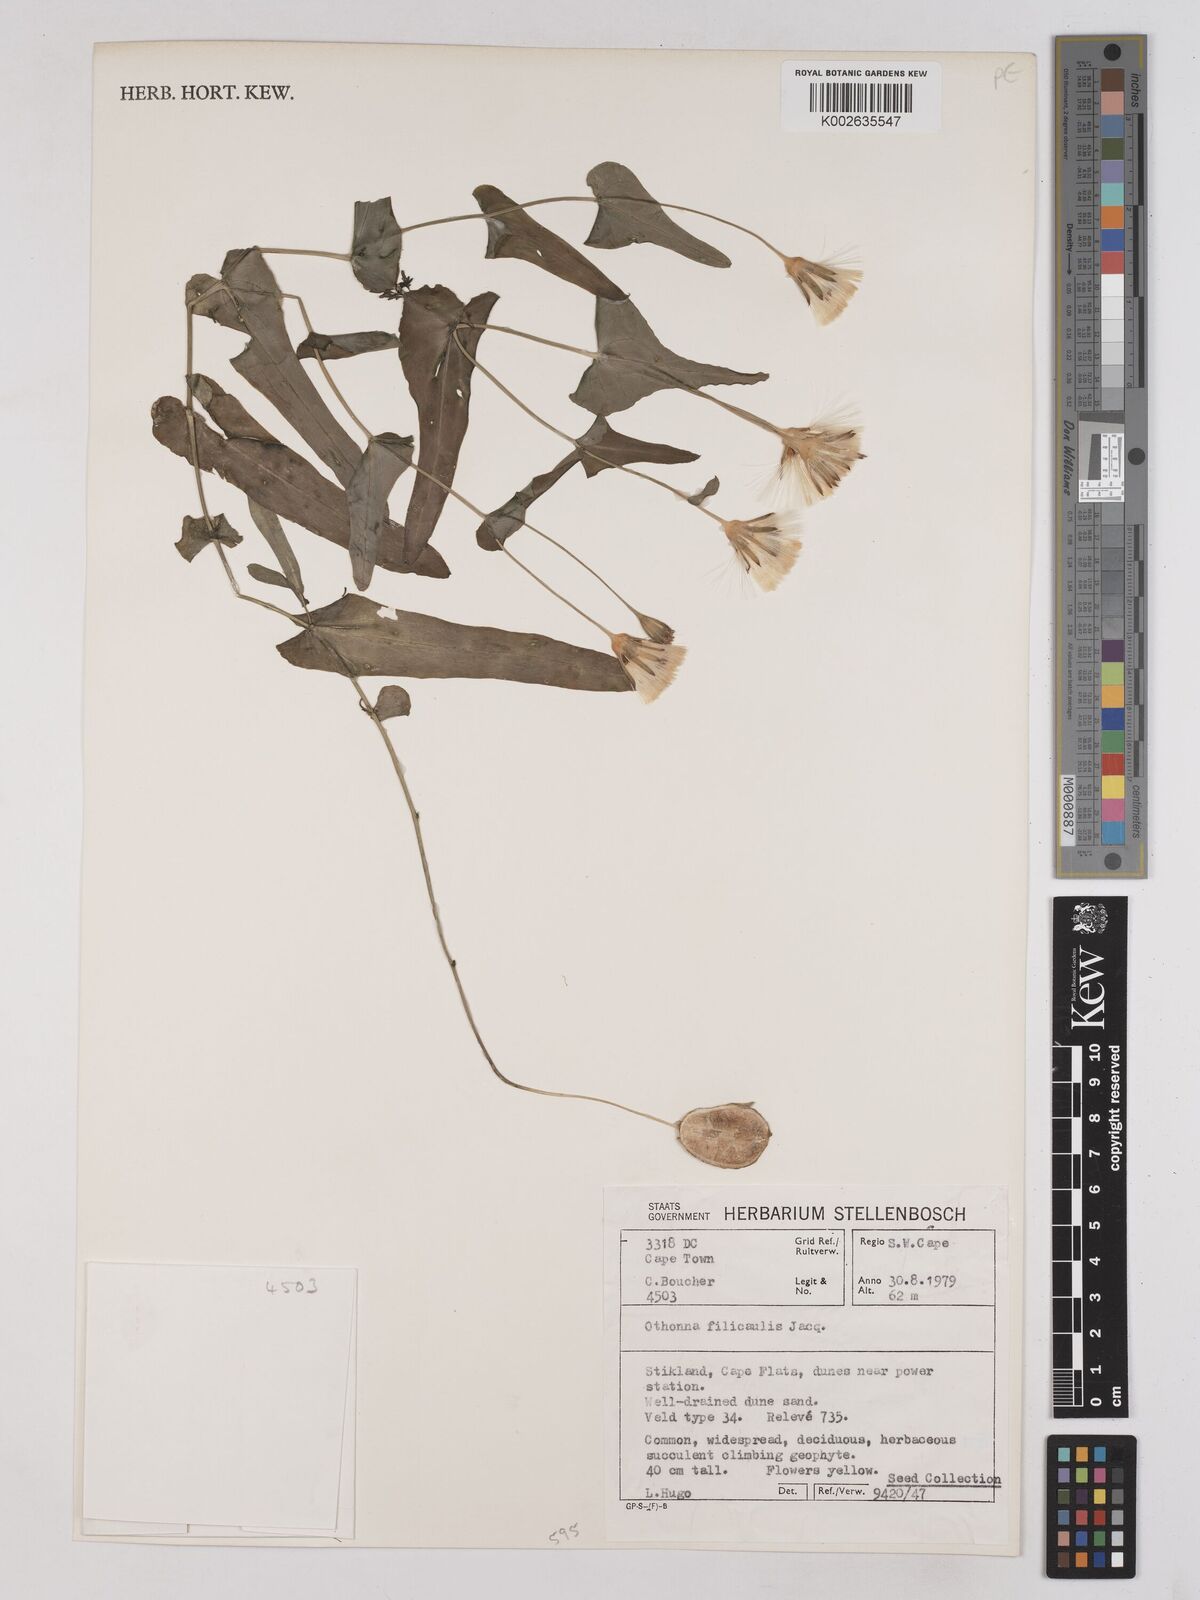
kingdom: Plantae
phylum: Tracheophyta
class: Magnoliopsida
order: Asterales
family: Asteraceae
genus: Othonna
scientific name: Othonna perfoliata
